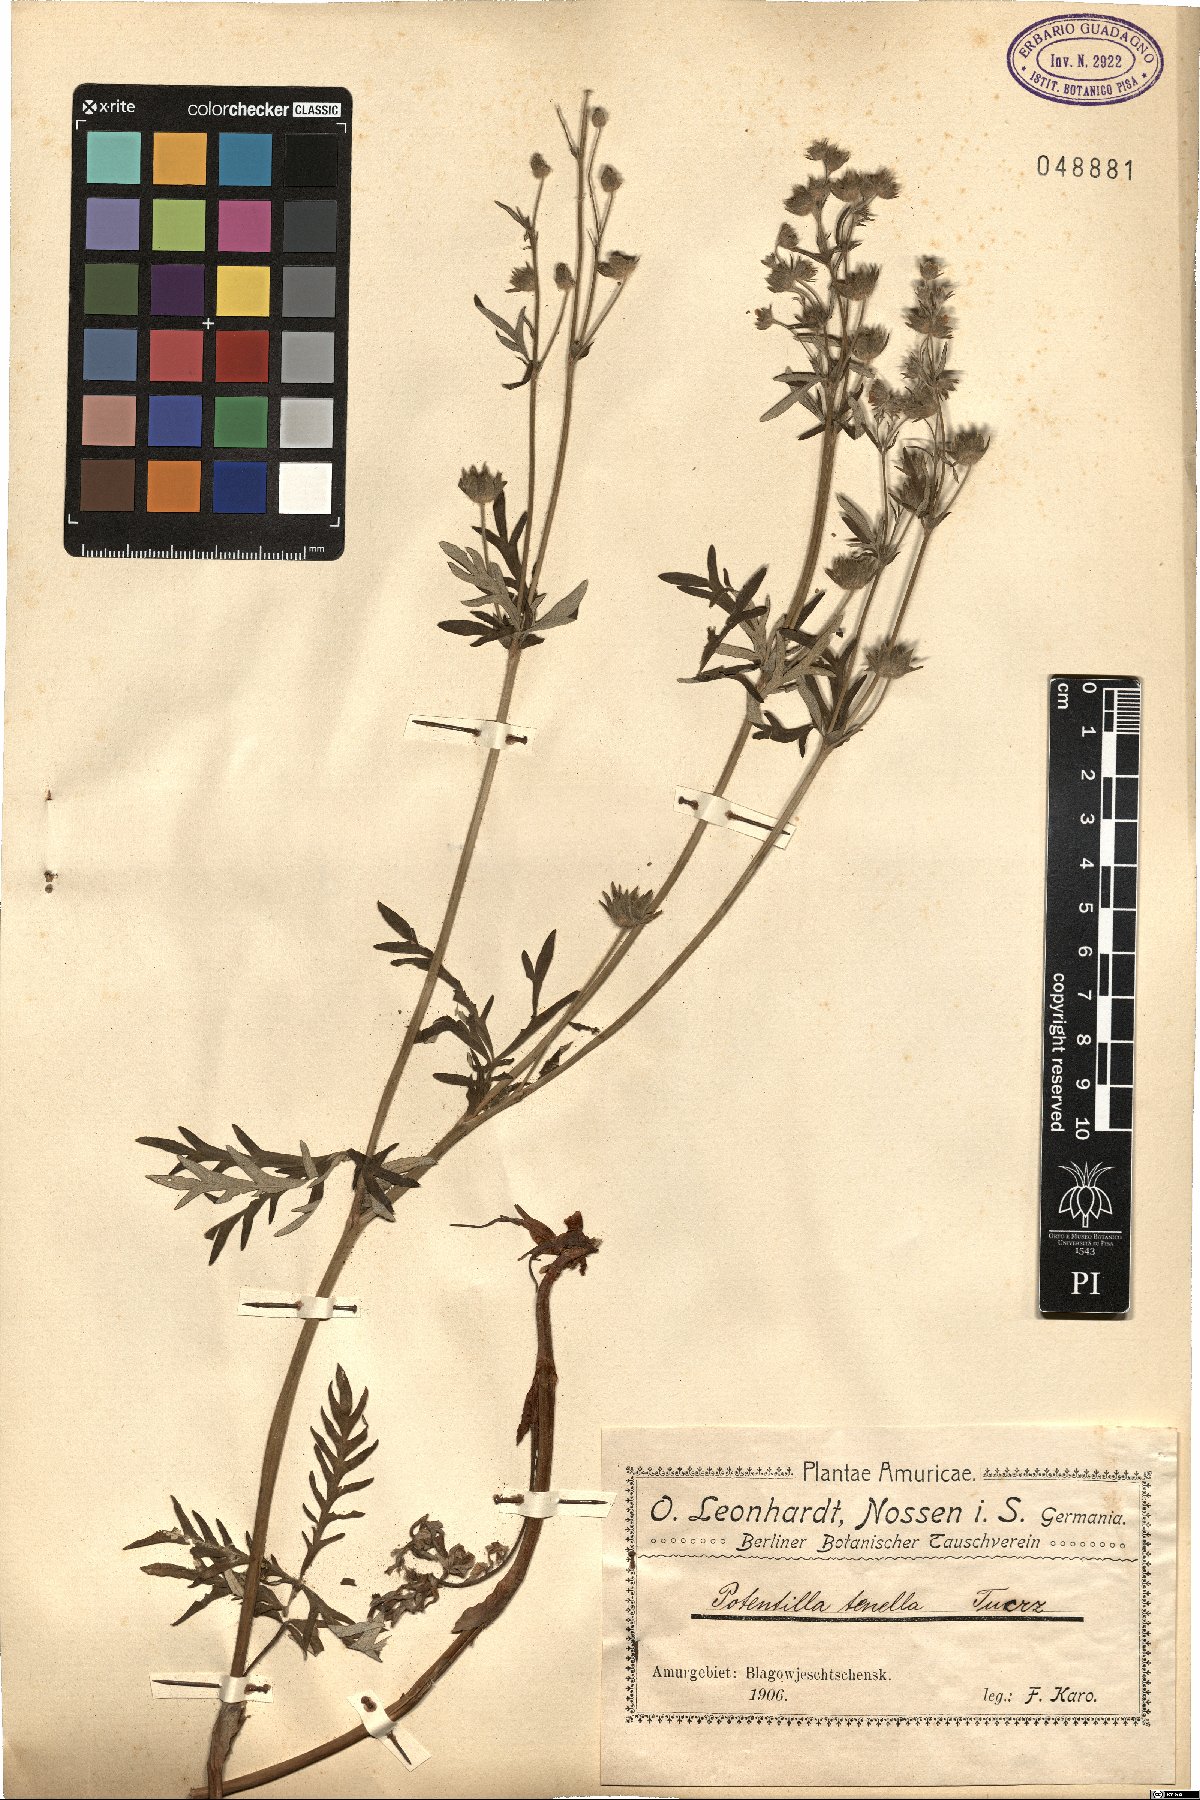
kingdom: Plantae
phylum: Tracheophyta
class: Magnoliopsida
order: Rosales
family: Rosaceae
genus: Potentilla
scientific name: Potentilla multifida
